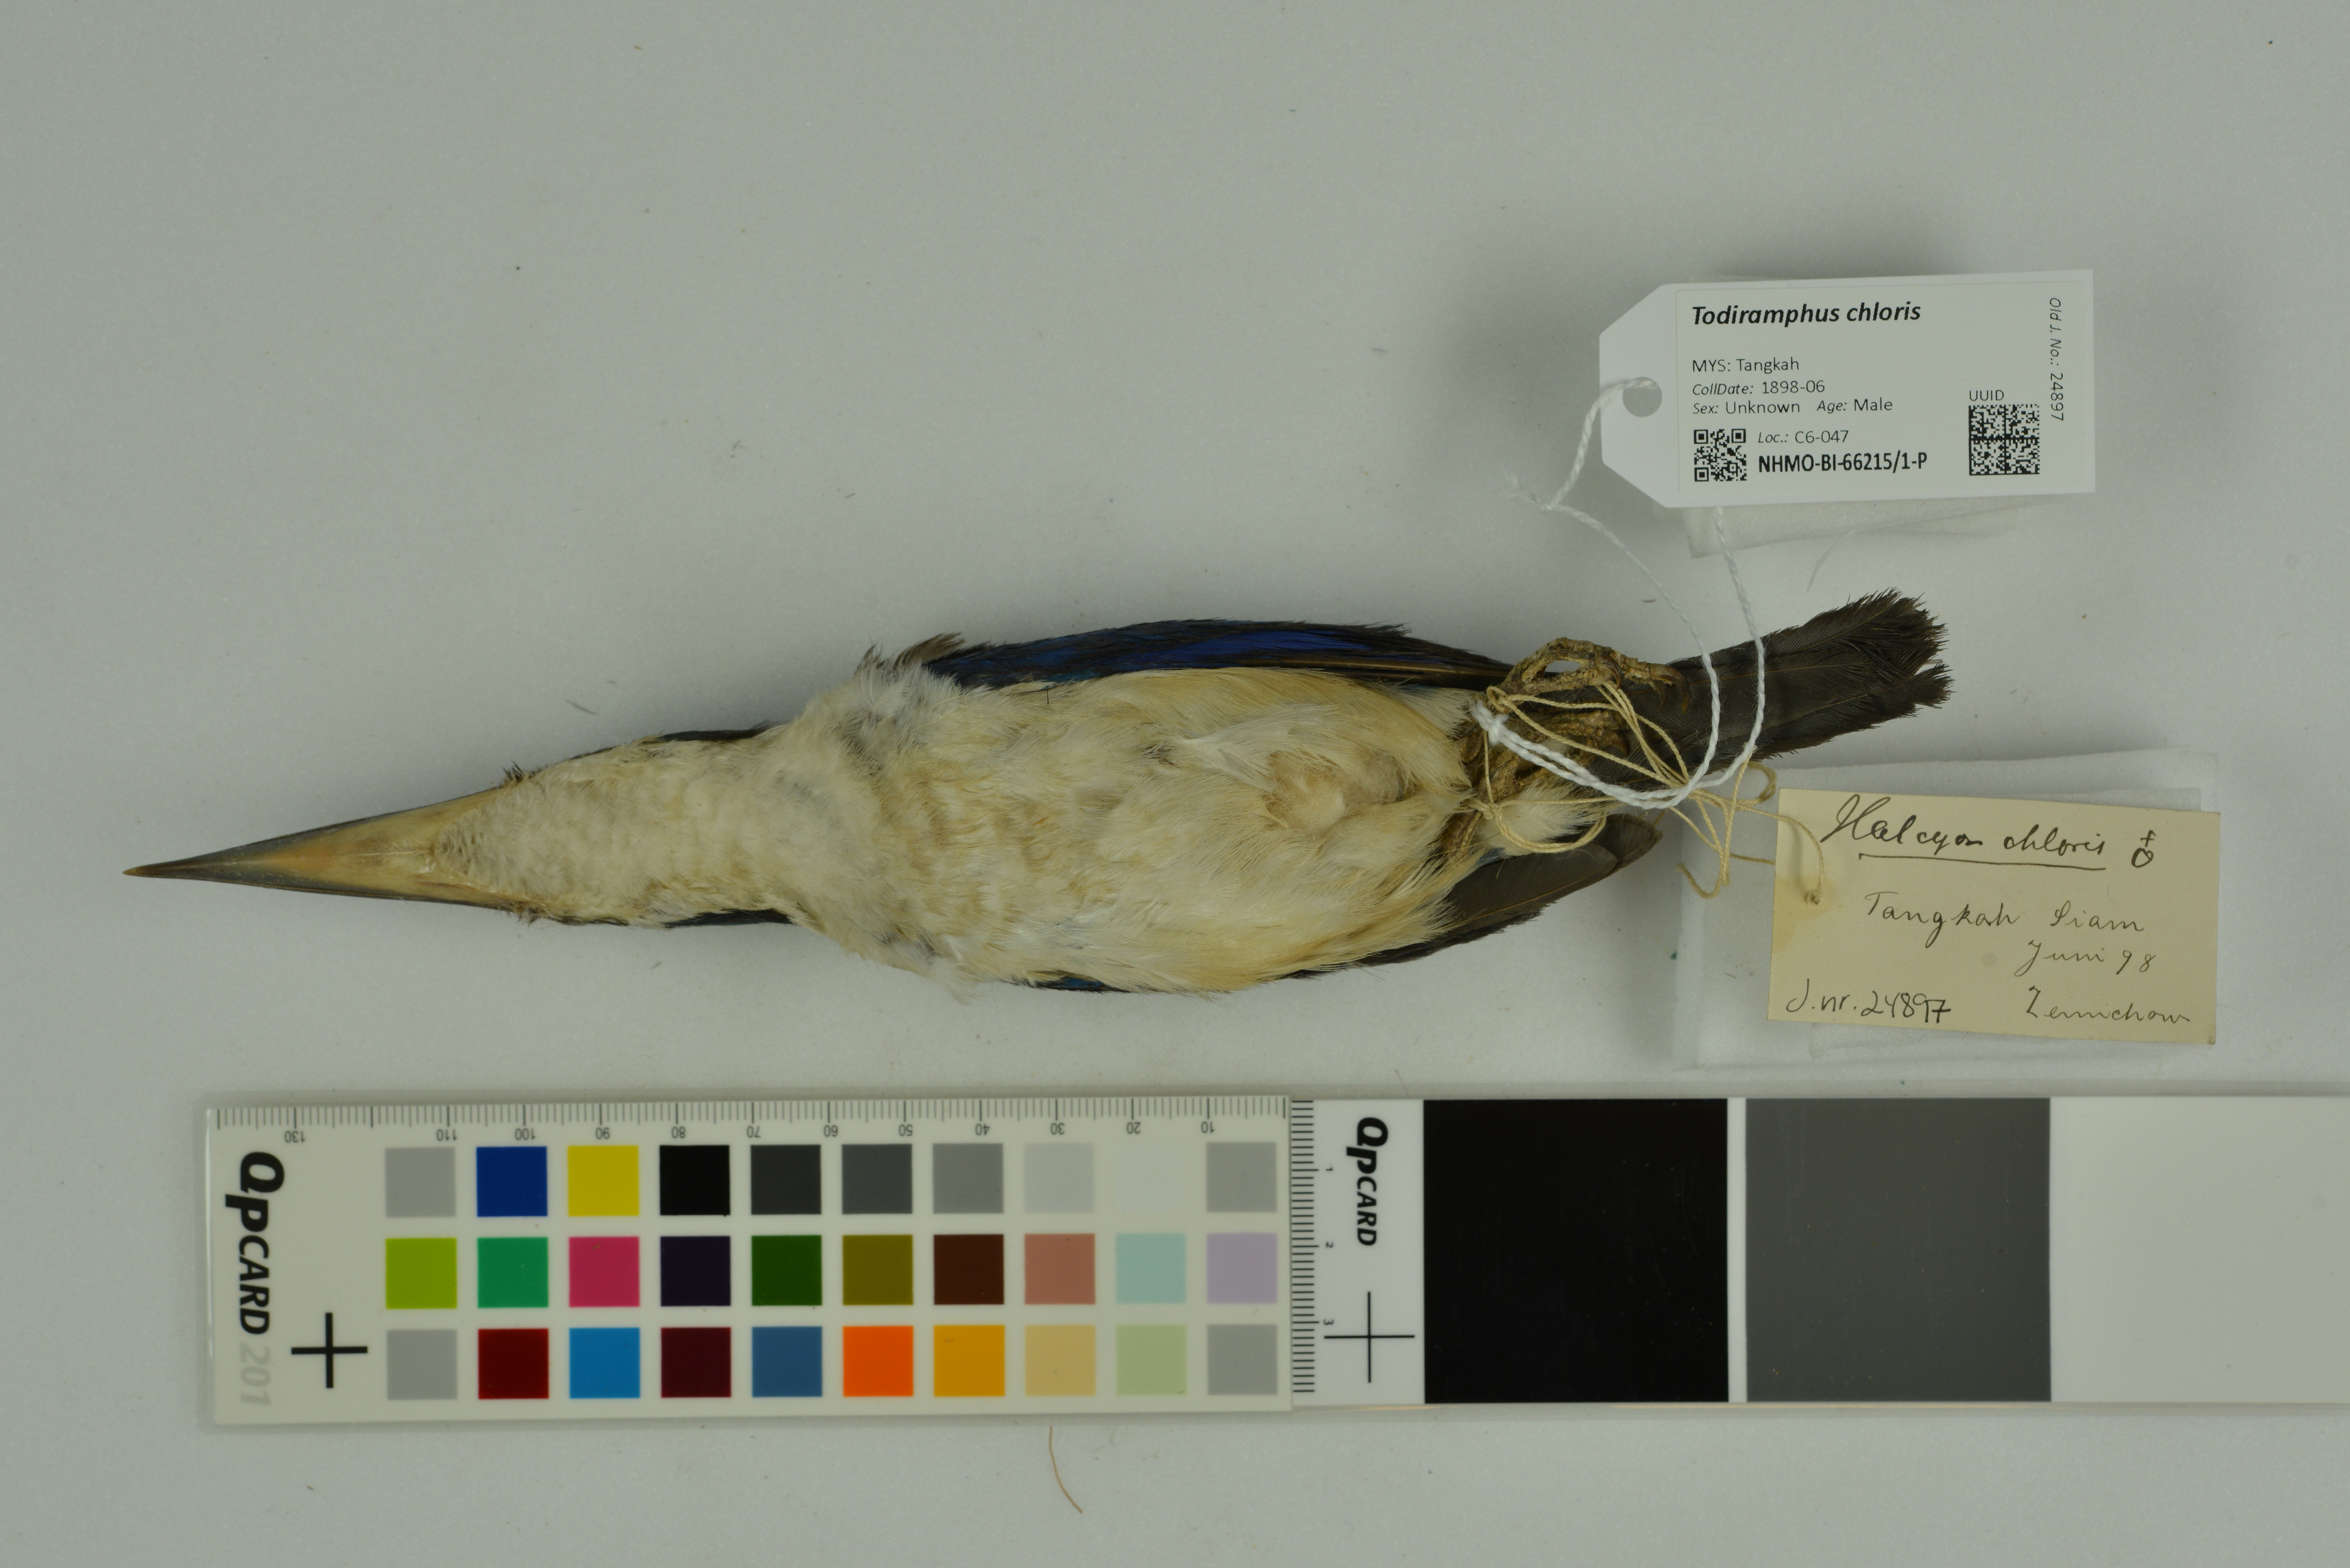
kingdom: Animalia
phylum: Chordata
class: Aves
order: Coraciiformes
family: Alcedinidae
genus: Todiramphus
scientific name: Todiramphus chloris
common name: Collared kingfisher
